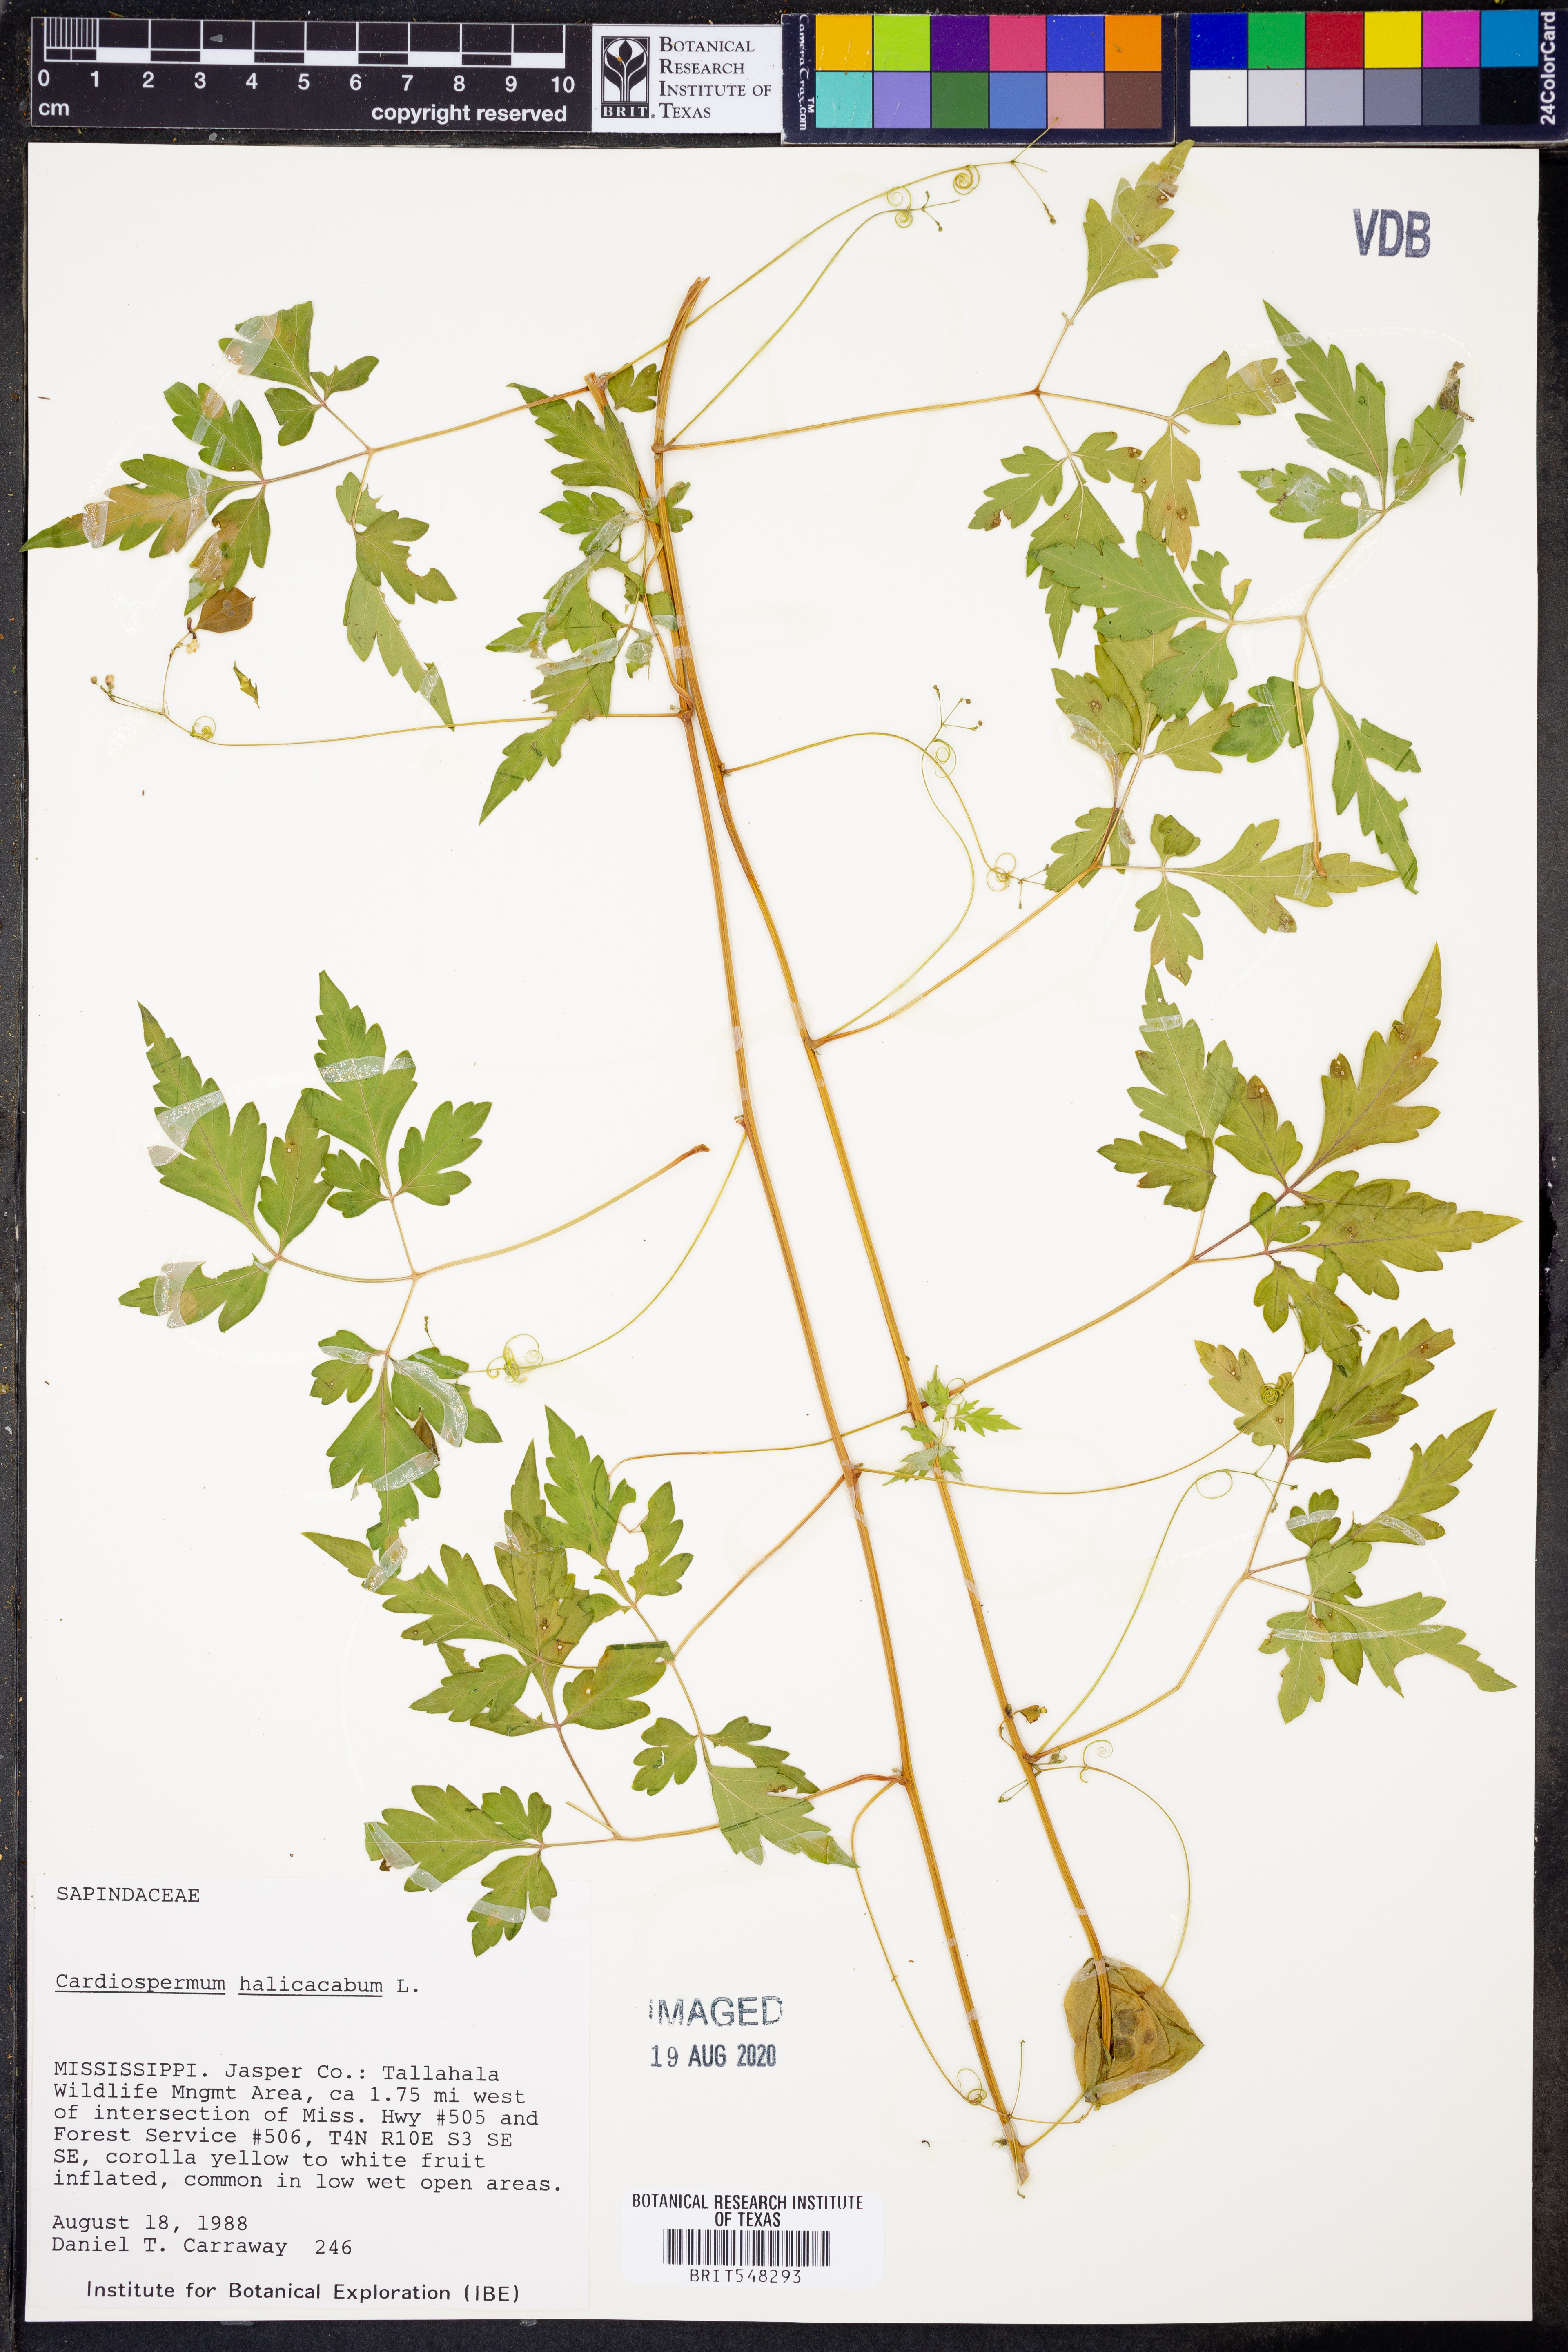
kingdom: Plantae
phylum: Tracheophyta
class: Magnoliopsida
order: Sapindales
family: Sapindaceae
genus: Cardiospermum
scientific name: Cardiospermum halicacabum
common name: Balloon vine
